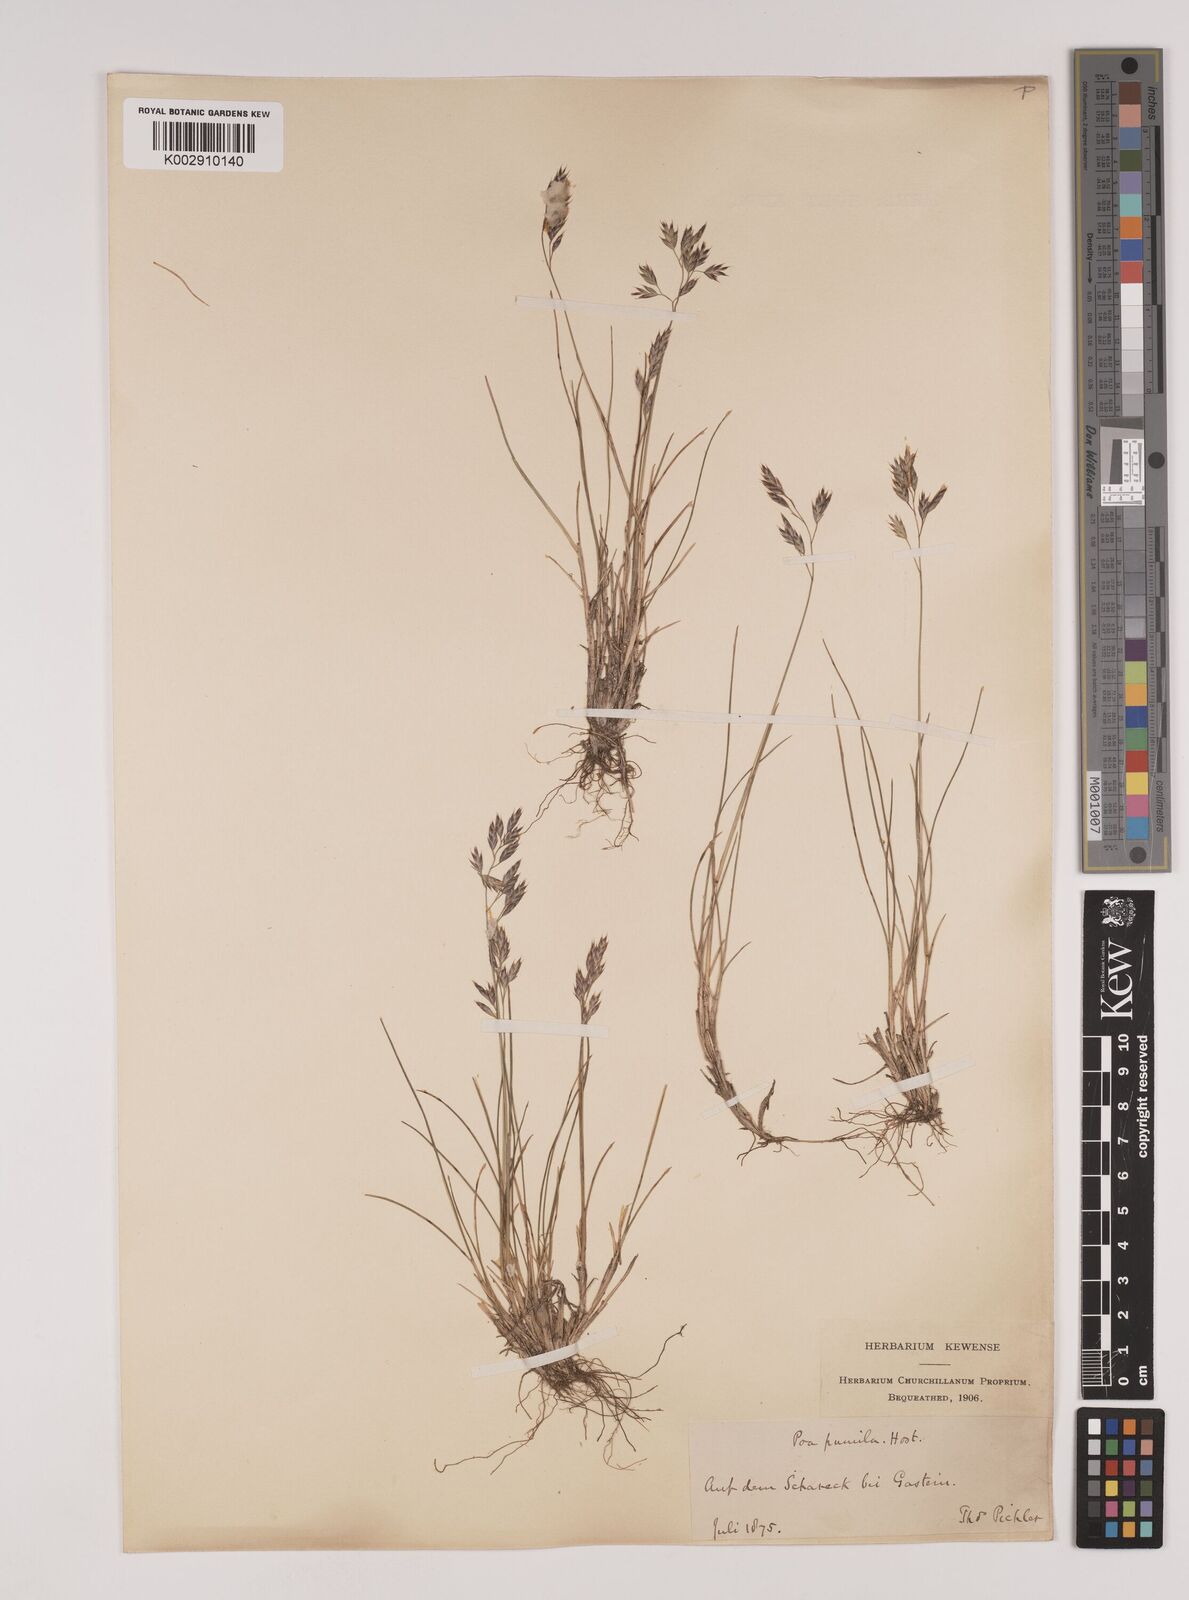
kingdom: Plantae
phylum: Tracheophyta
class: Liliopsida
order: Poales
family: Poaceae
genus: Festuca
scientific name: Festuca
